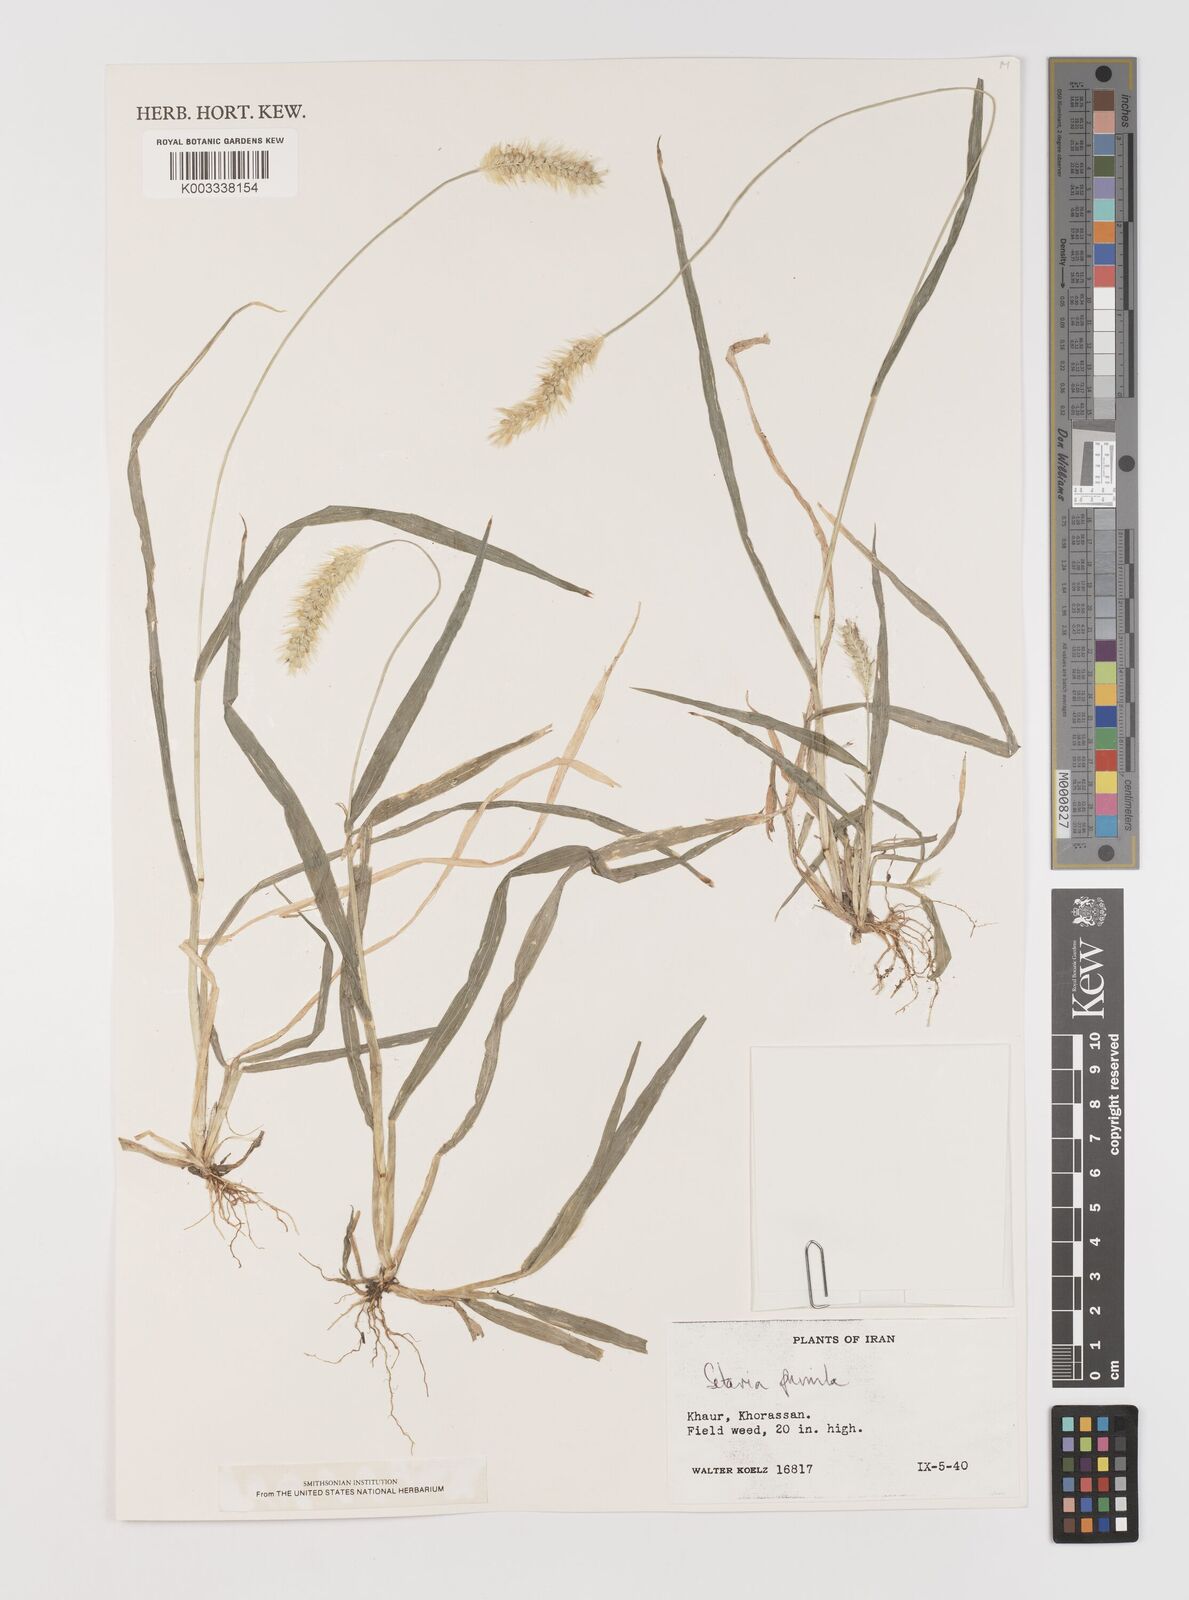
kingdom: Plantae
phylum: Tracheophyta
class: Liliopsida
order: Poales
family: Poaceae
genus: Setaria
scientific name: Setaria pumila
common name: Yellow bristle-grass
